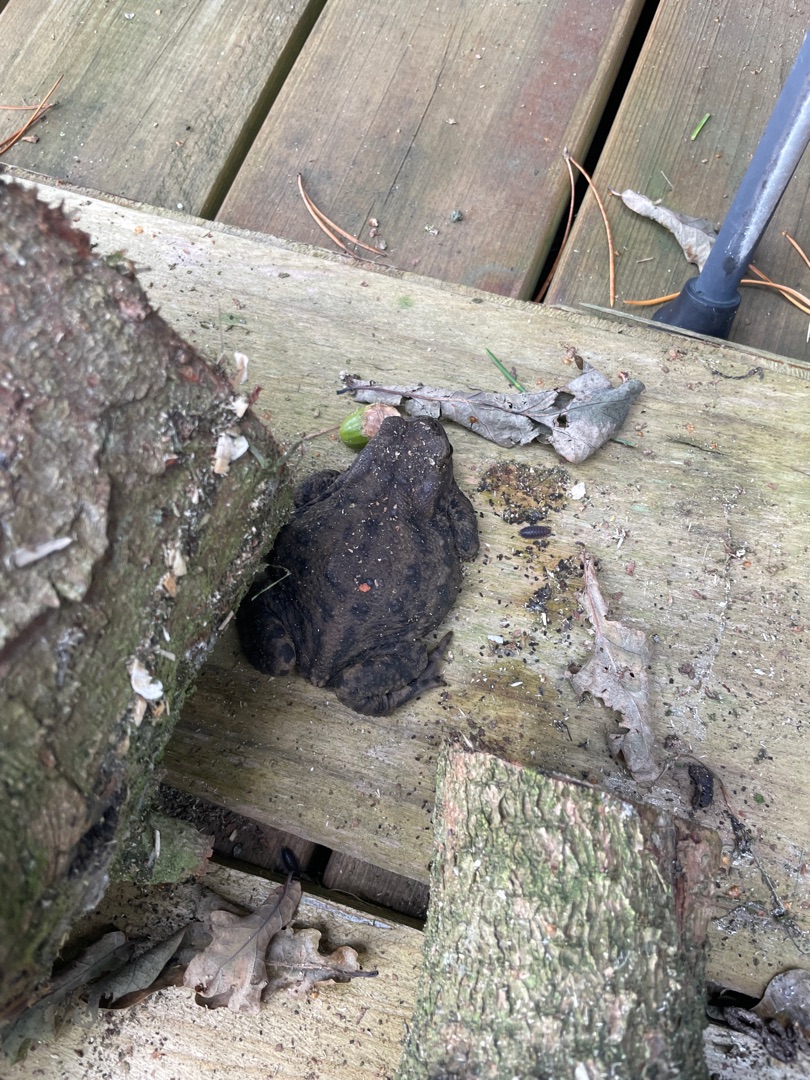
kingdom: Animalia
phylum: Chordata
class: Amphibia
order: Anura
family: Bufonidae
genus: Bufo
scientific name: Bufo bufo
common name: Skrubtudse
